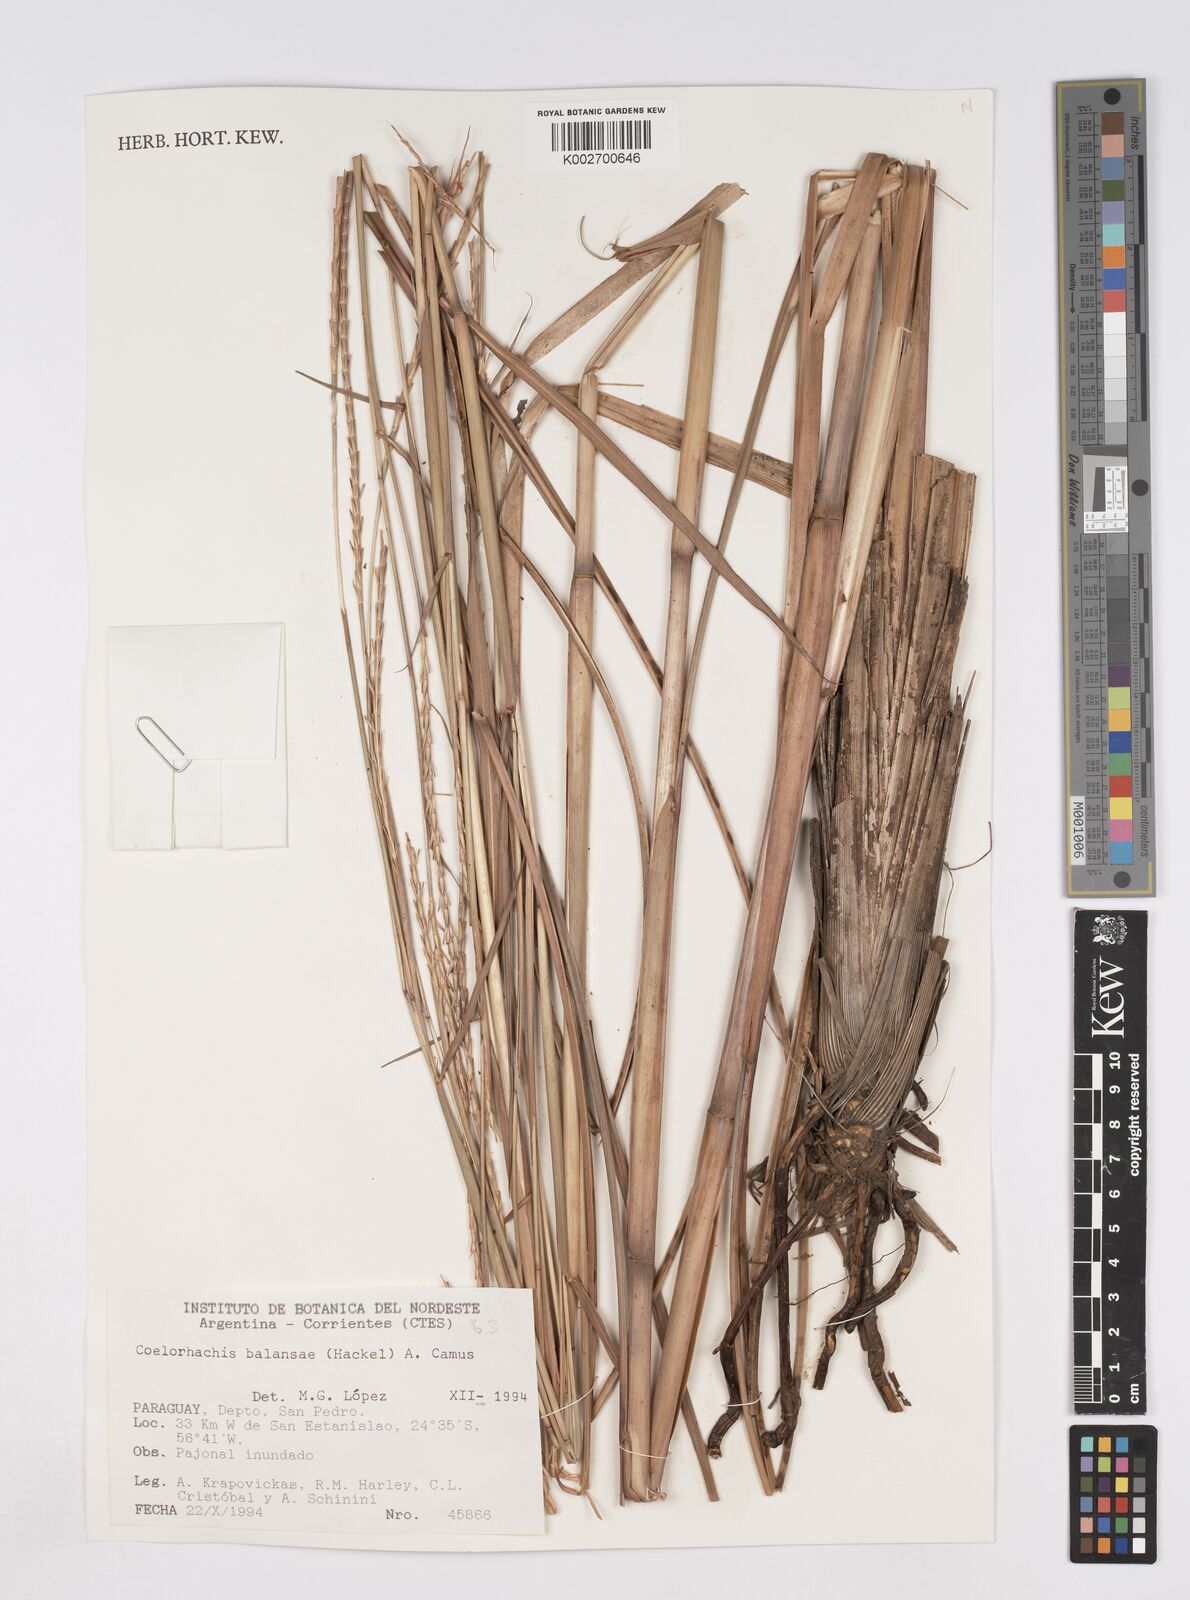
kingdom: Plantae
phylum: Tracheophyta
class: Liliopsida
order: Poales
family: Poaceae
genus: Rottboellia
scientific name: Rottboellia balansae
